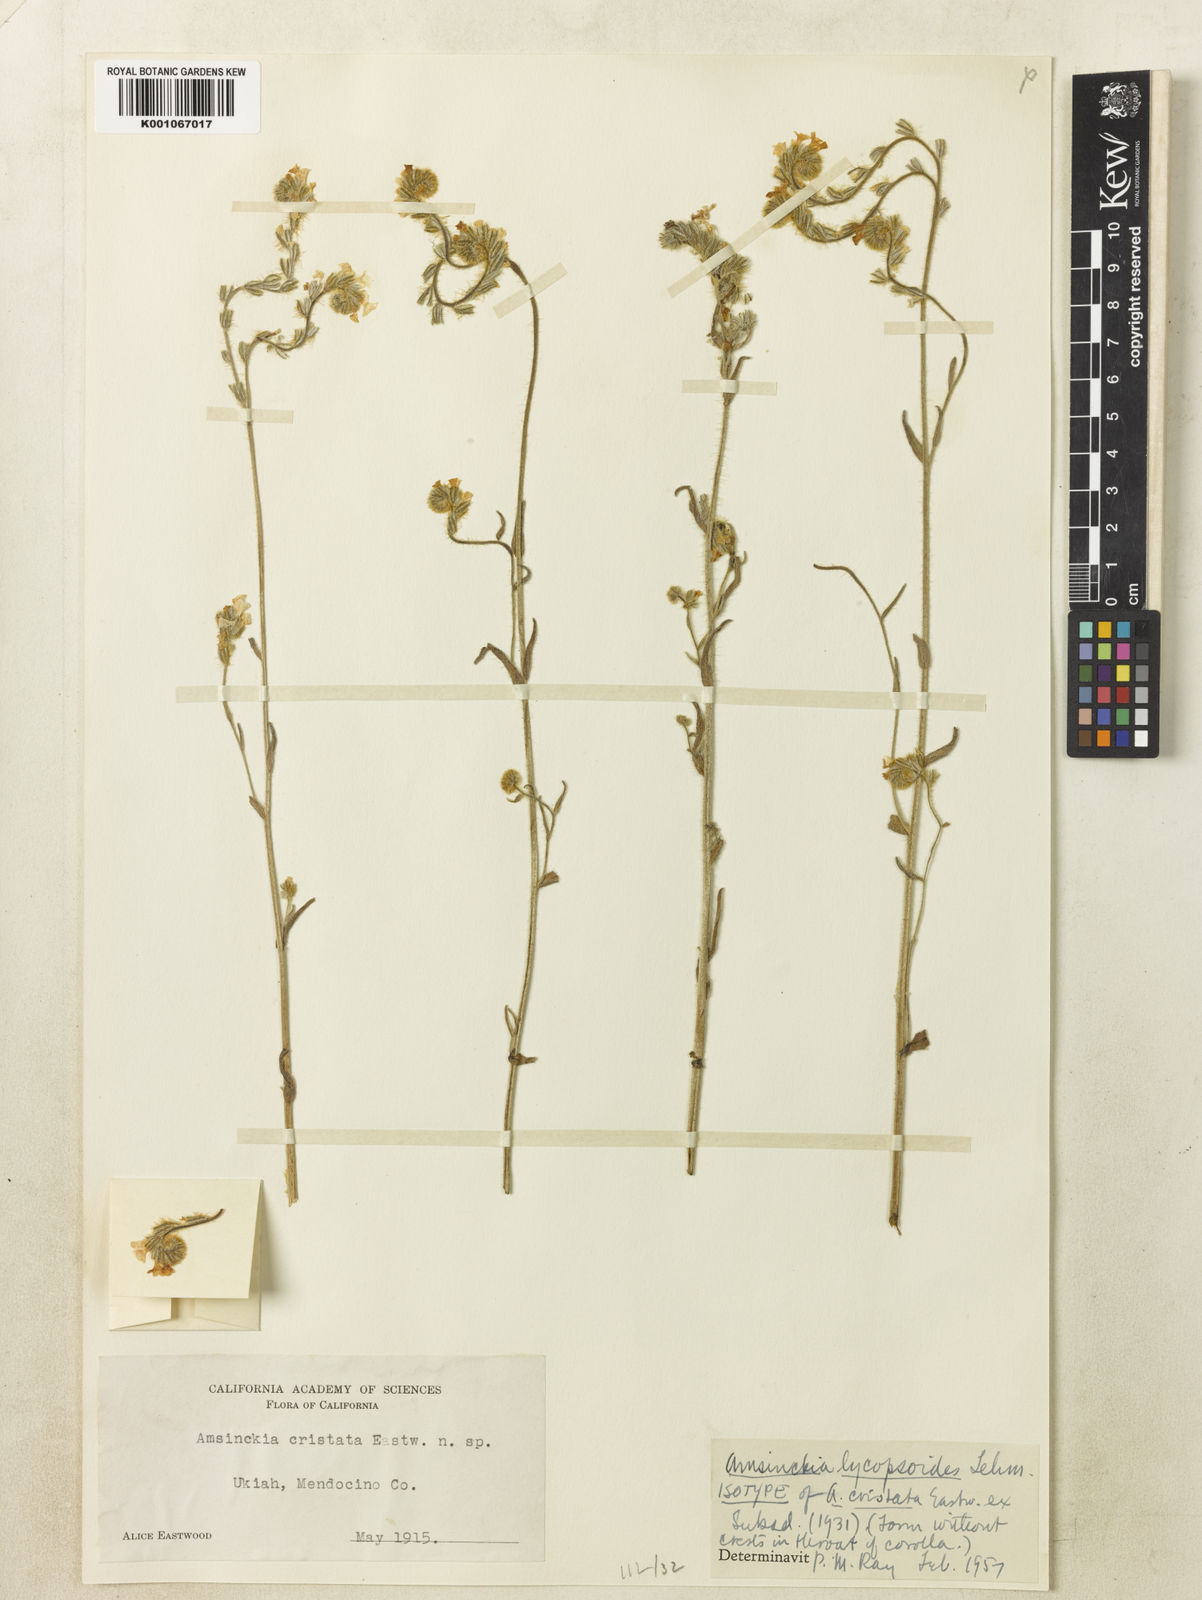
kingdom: Plantae
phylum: Tracheophyta
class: Magnoliopsida
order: Boraginales
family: Boraginaceae
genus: Amsinckia
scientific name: Amsinckia
